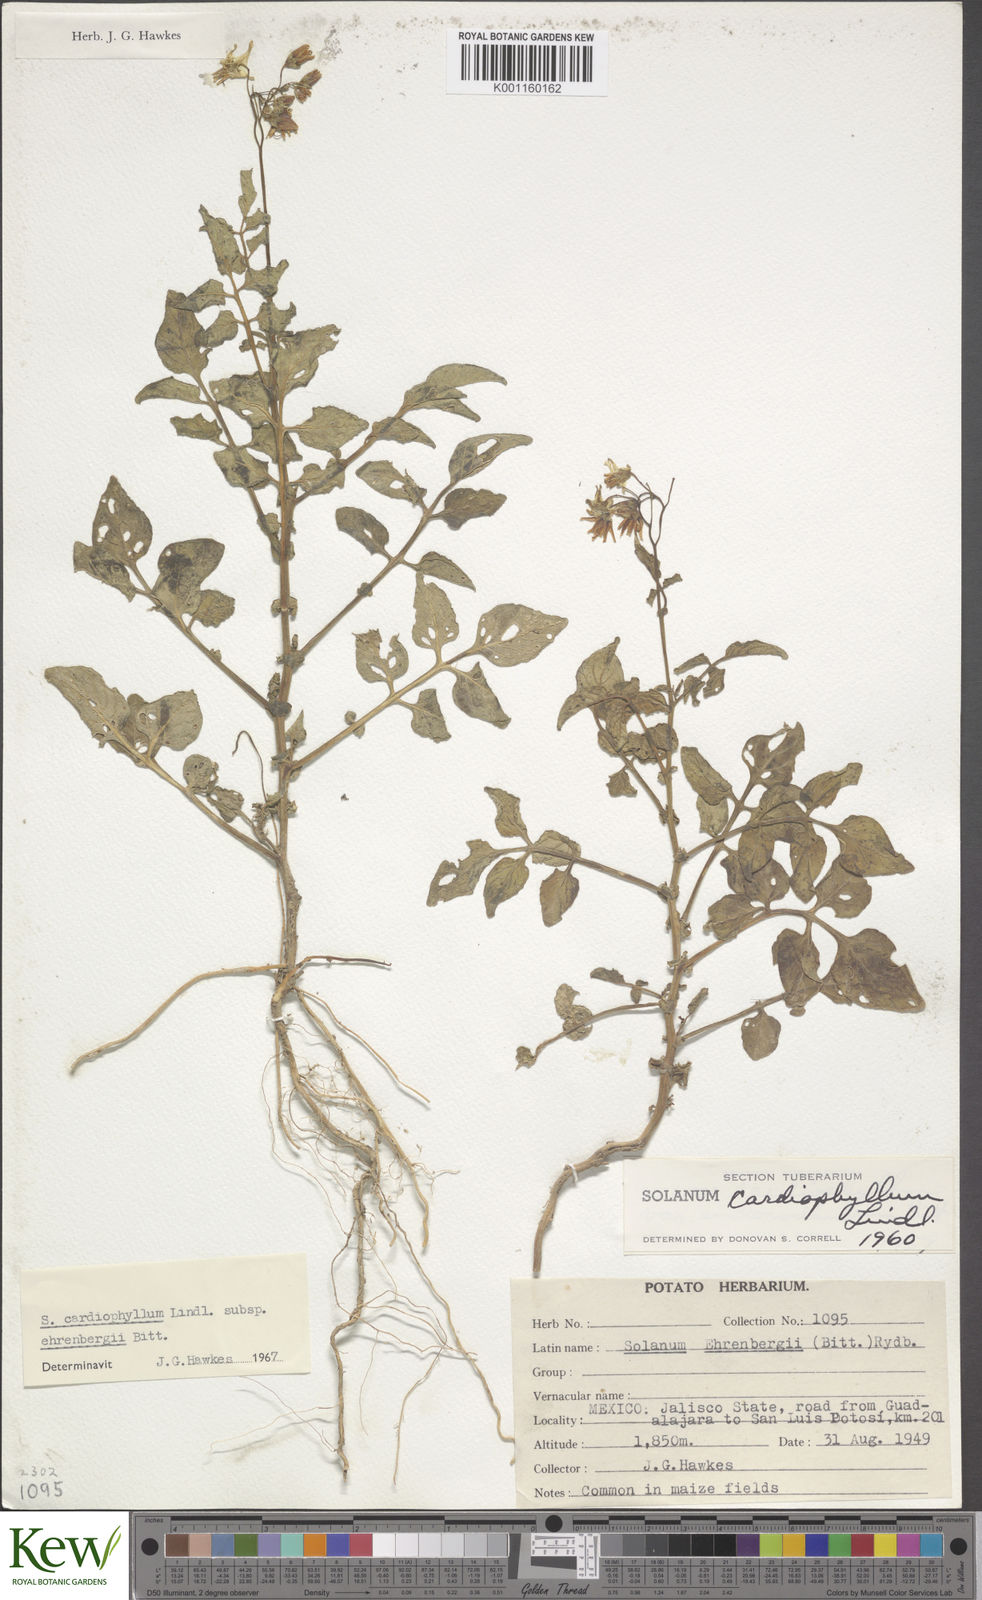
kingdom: Plantae
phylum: Tracheophyta
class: Magnoliopsida
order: Solanales
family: Solanaceae
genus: Solanum
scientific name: Solanum cardiophyllum
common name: Heartleaf horsenettle
